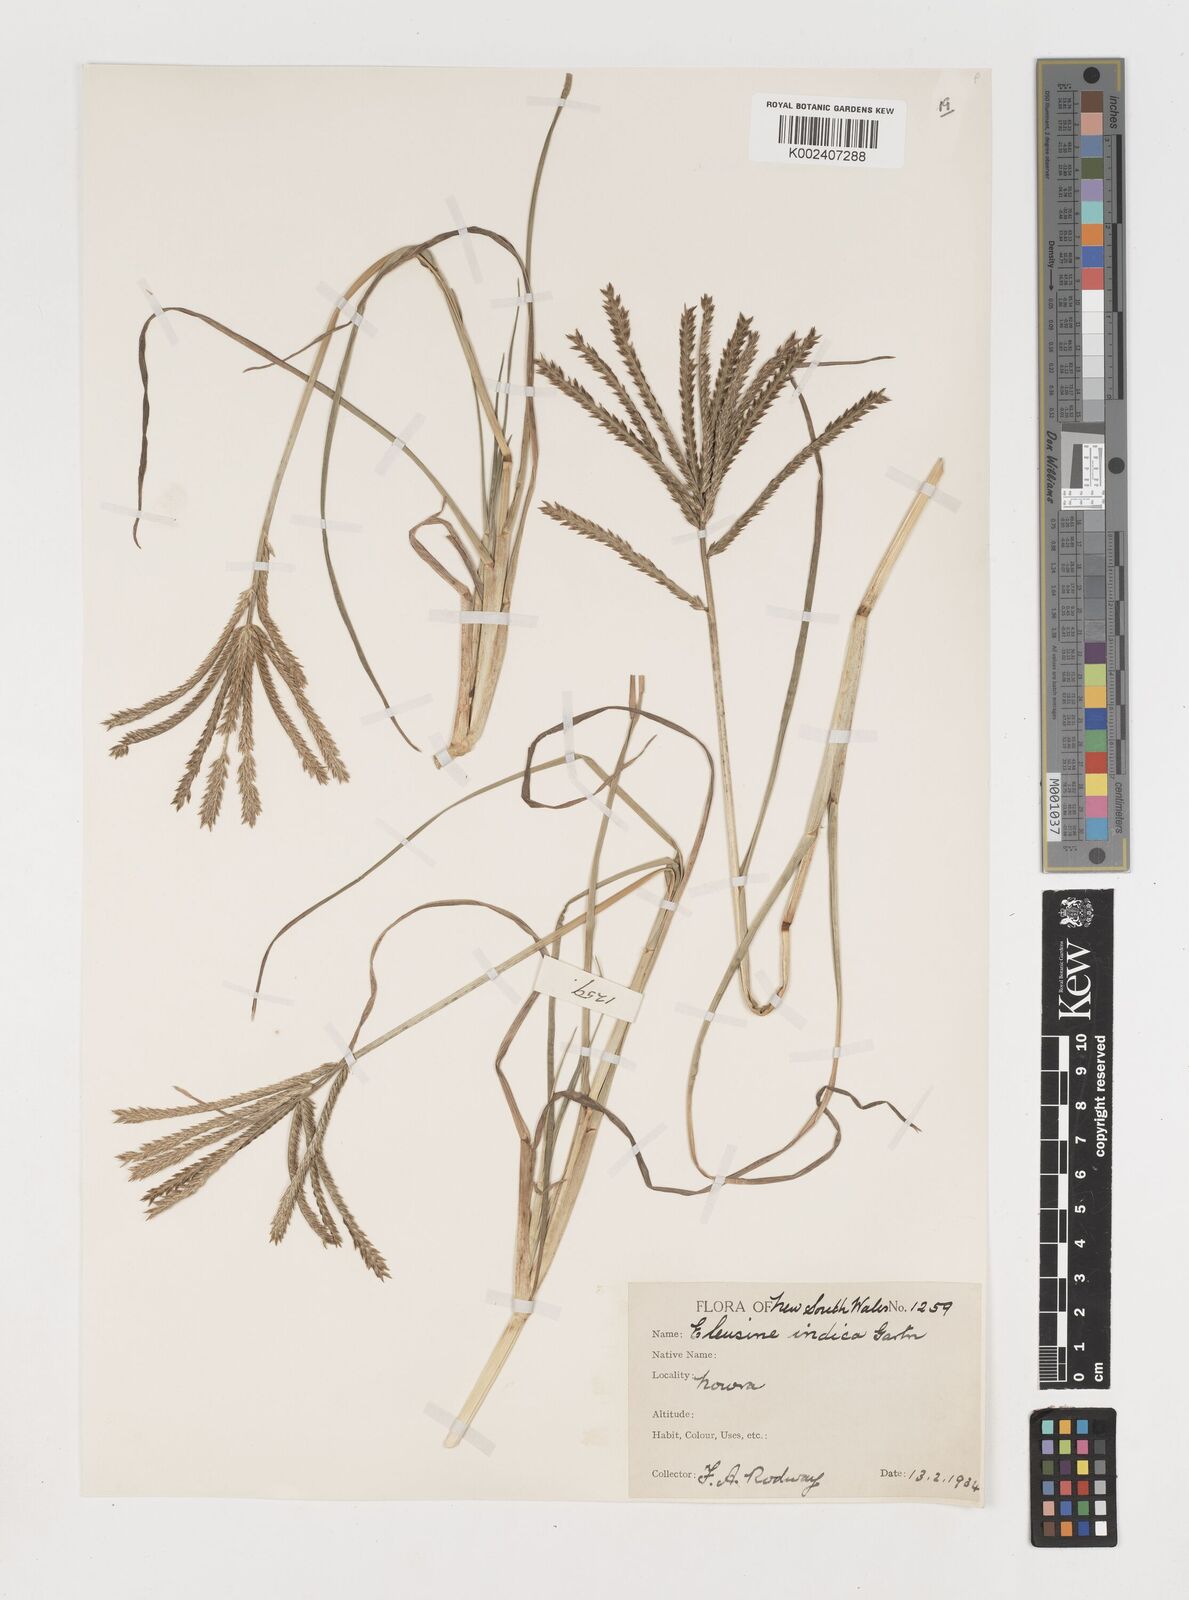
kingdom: Plantae
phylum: Tracheophyta
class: Liliopsida
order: Poales
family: Poaceae
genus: Eleusine
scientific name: Eleusine africana
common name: Wild african finger millet
